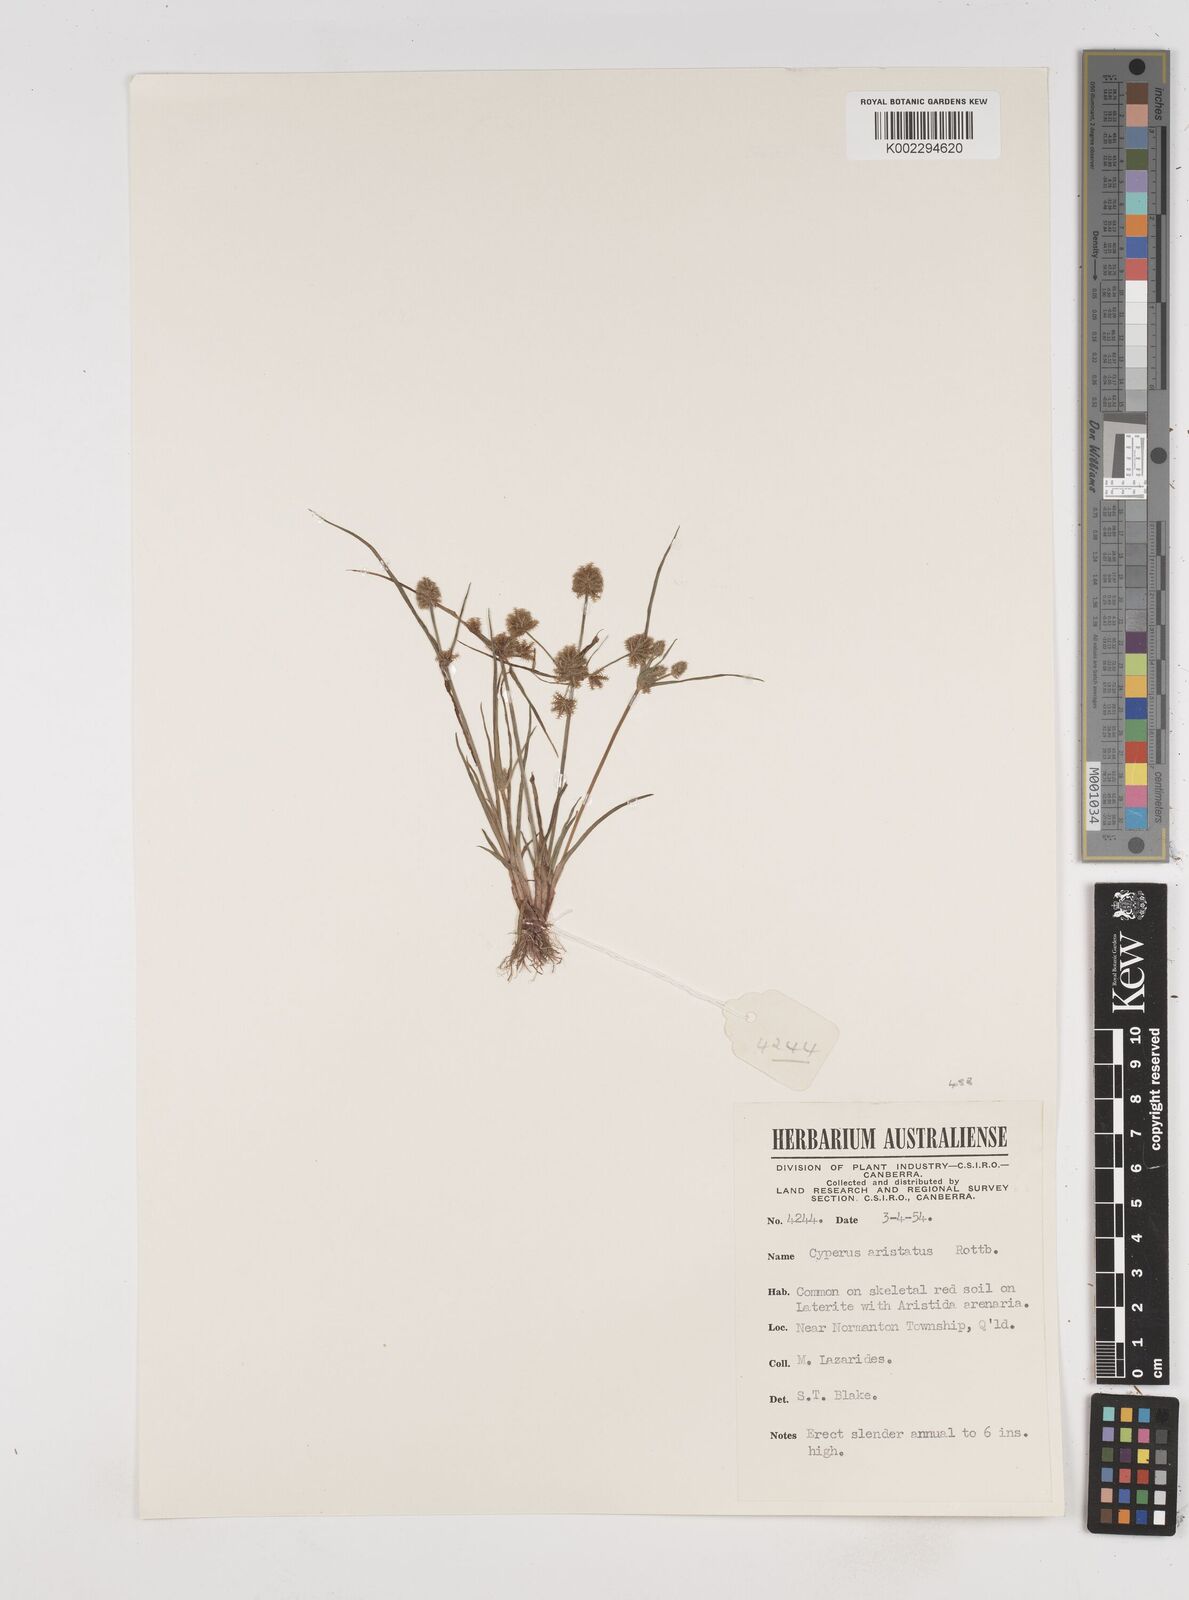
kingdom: Plantae
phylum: Tracheophyta
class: Liliopsida
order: Poales
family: Cyperaceae
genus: Cyperus
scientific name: Cyperus squarrosus
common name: Awned cyperus
